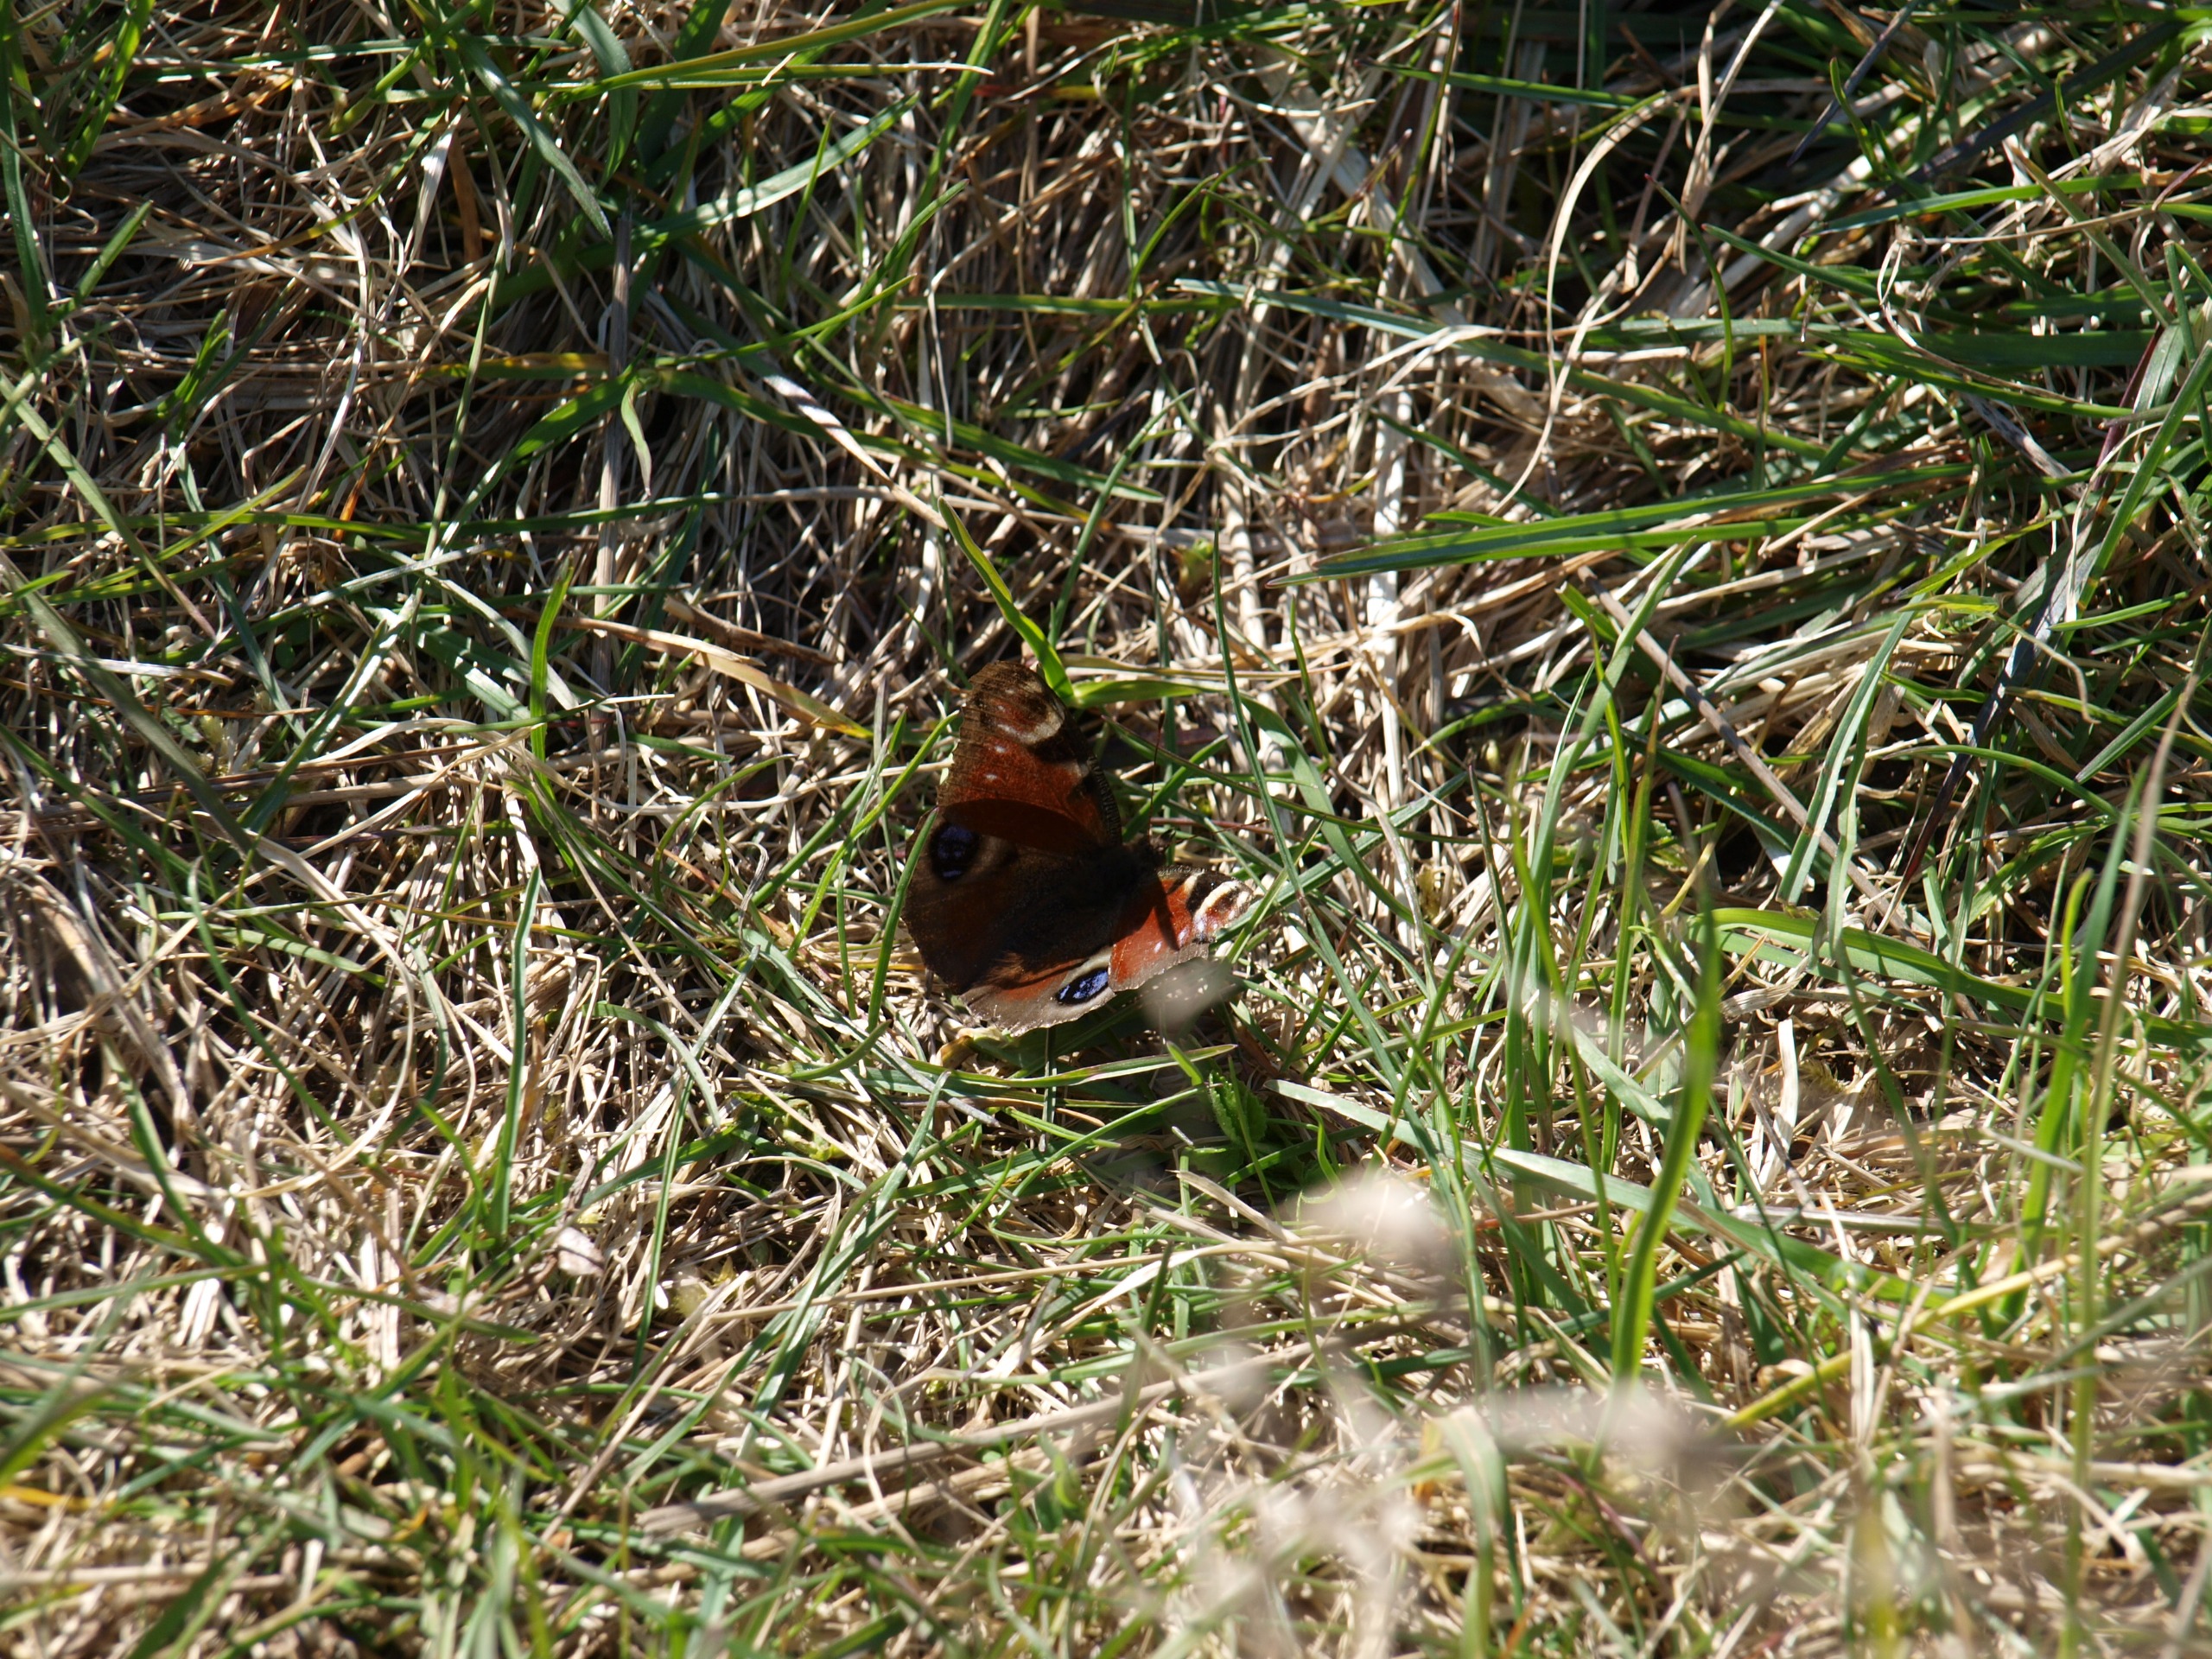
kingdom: Animalia
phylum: Arthropoda
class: Insecta
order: Lepidoptera
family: Nymphalidae
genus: Aglais
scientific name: Aglais io
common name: Dagpåfugleøje
